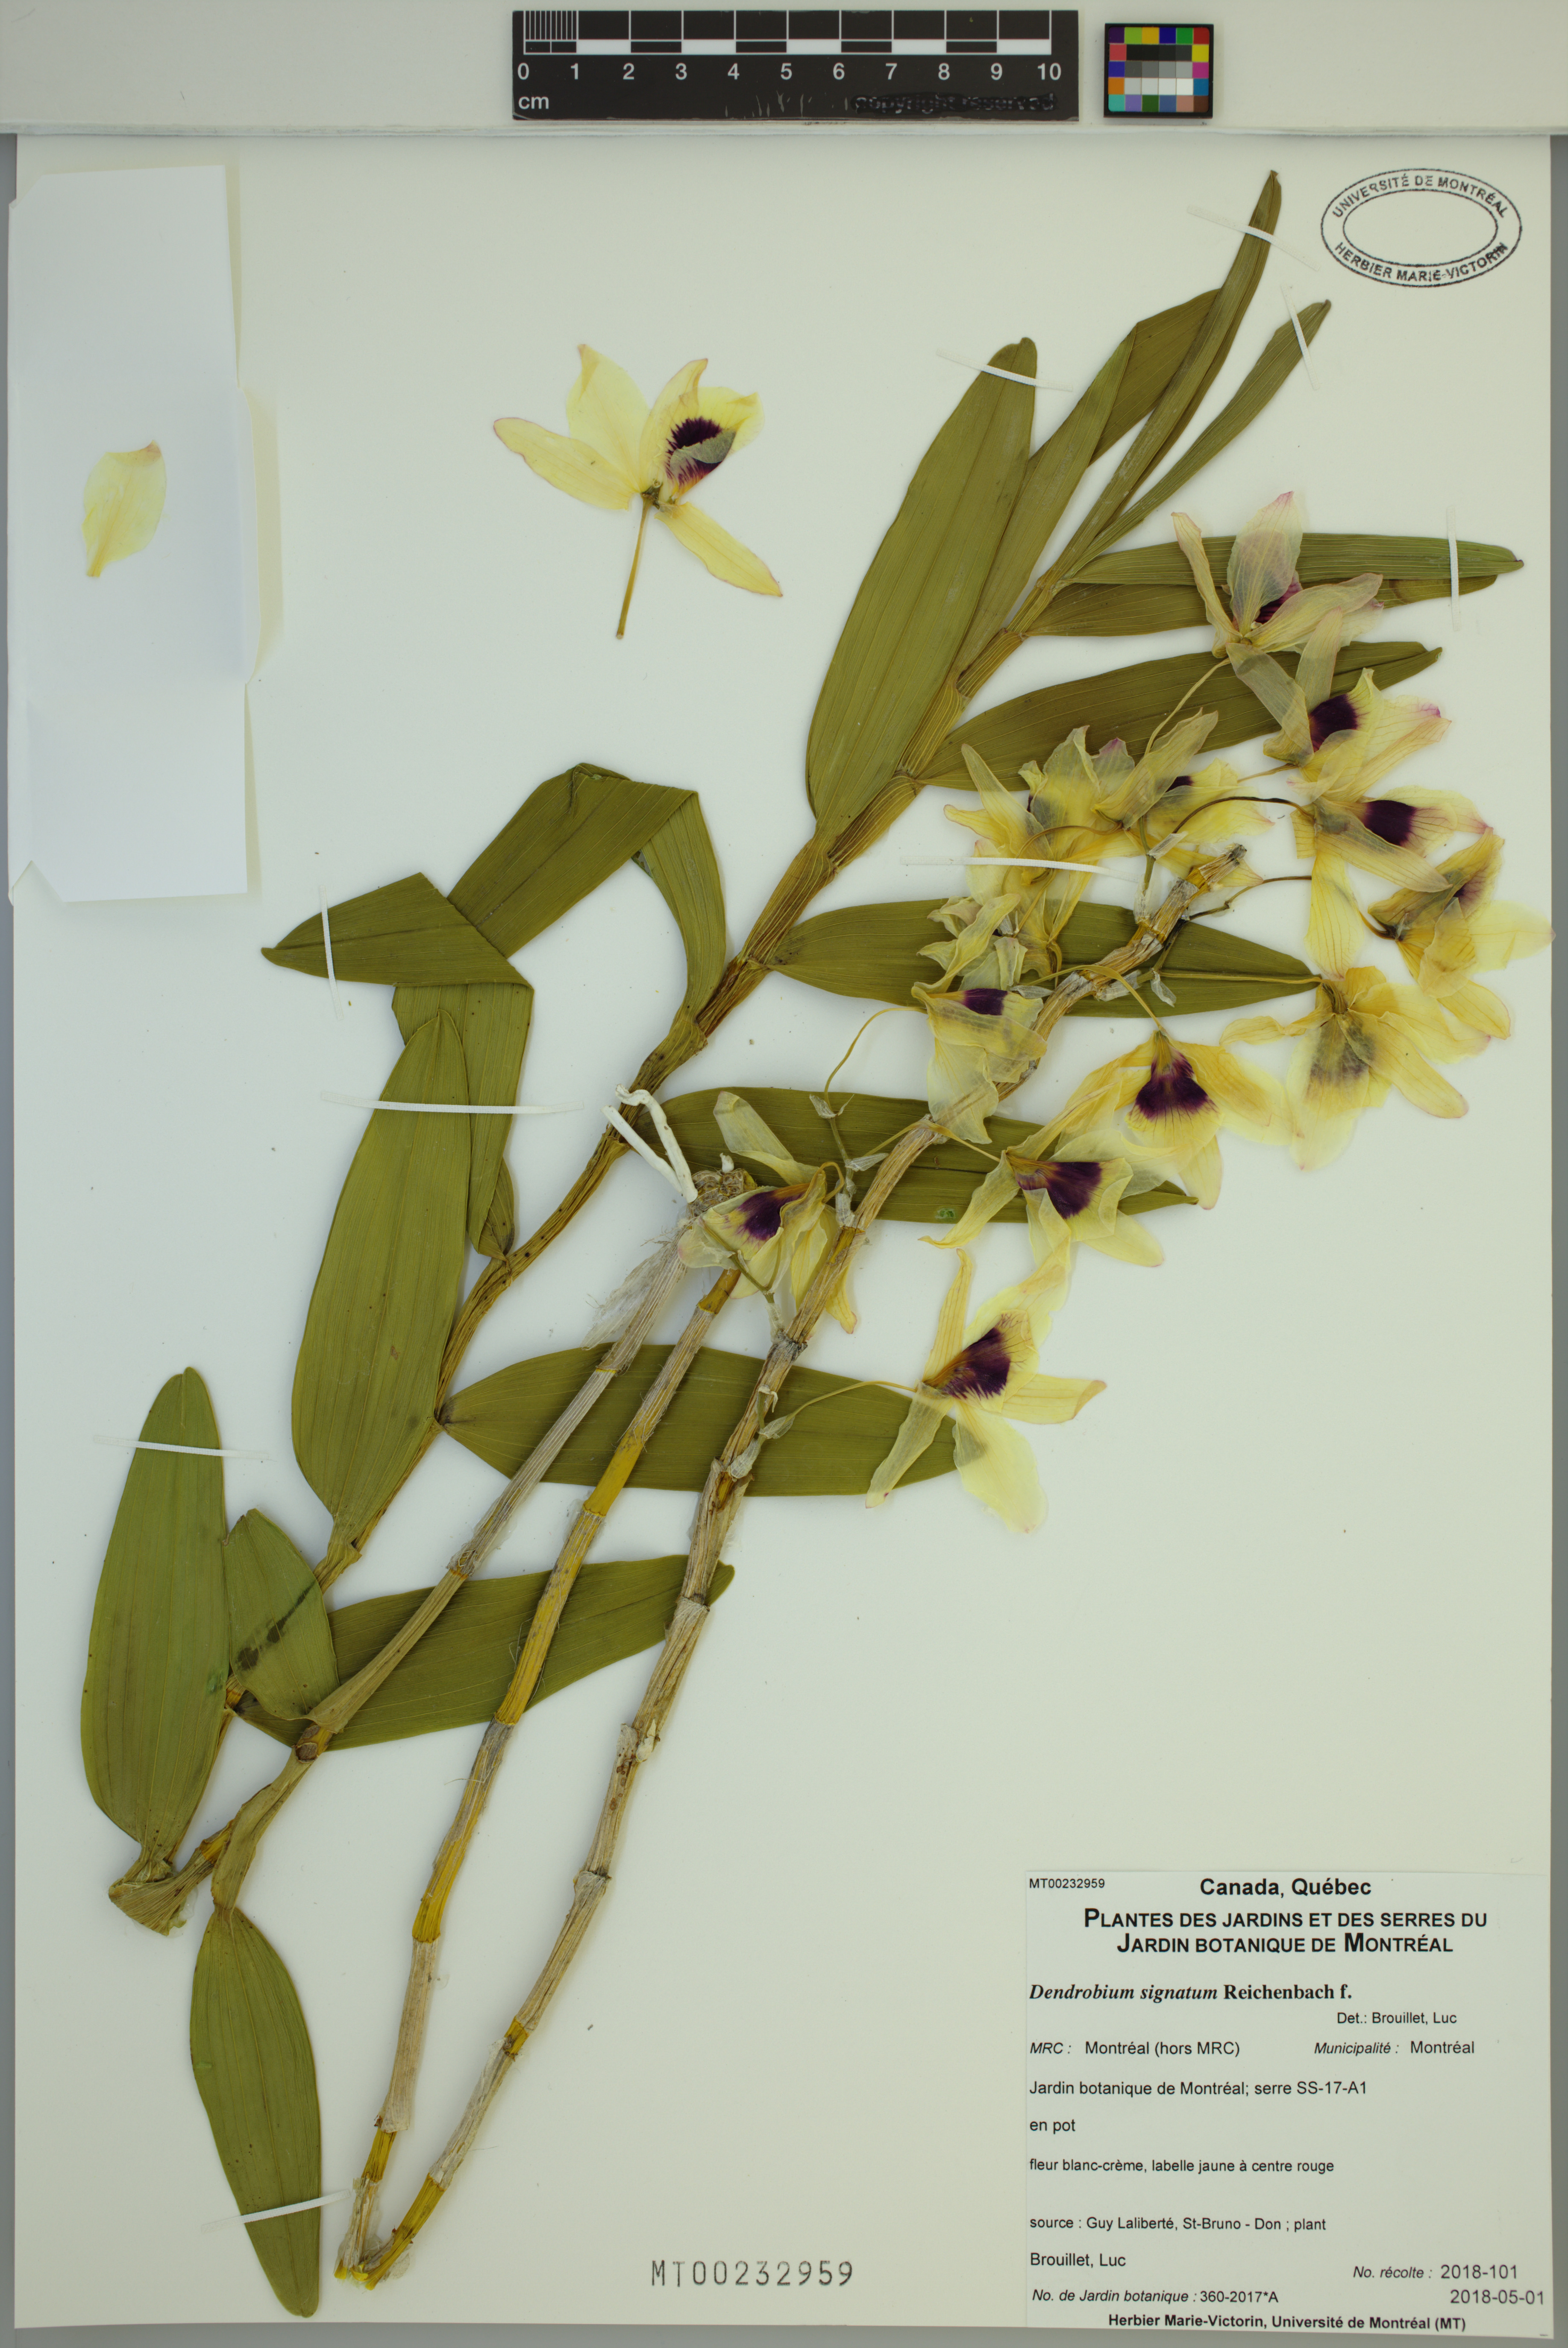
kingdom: Plantae
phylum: Tracheophyta
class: Liliopsida
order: Asparagales
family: Orchidaceae
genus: Dendrobium
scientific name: Dendrobium signatum
